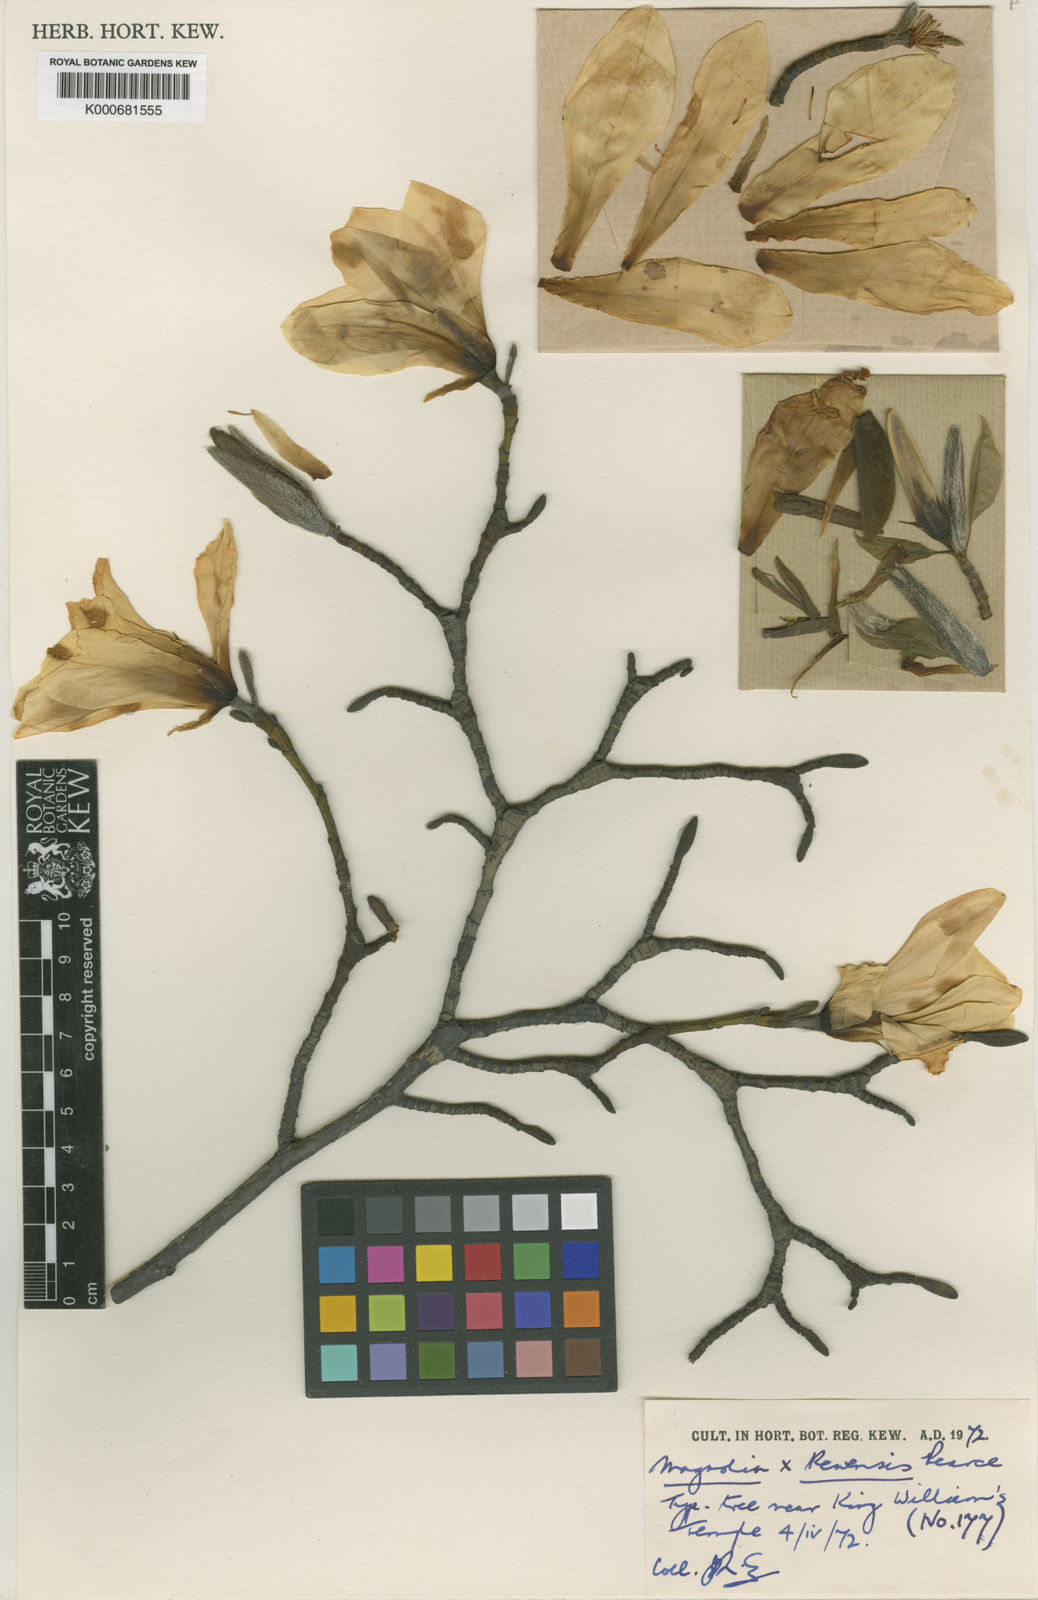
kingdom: Plantae
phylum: Tracheophyta
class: Magnoliopsida
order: Magnoliales
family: Magnoliaceae
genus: Magnolia
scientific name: Magnolia salicifolia
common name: Anise magnolia
